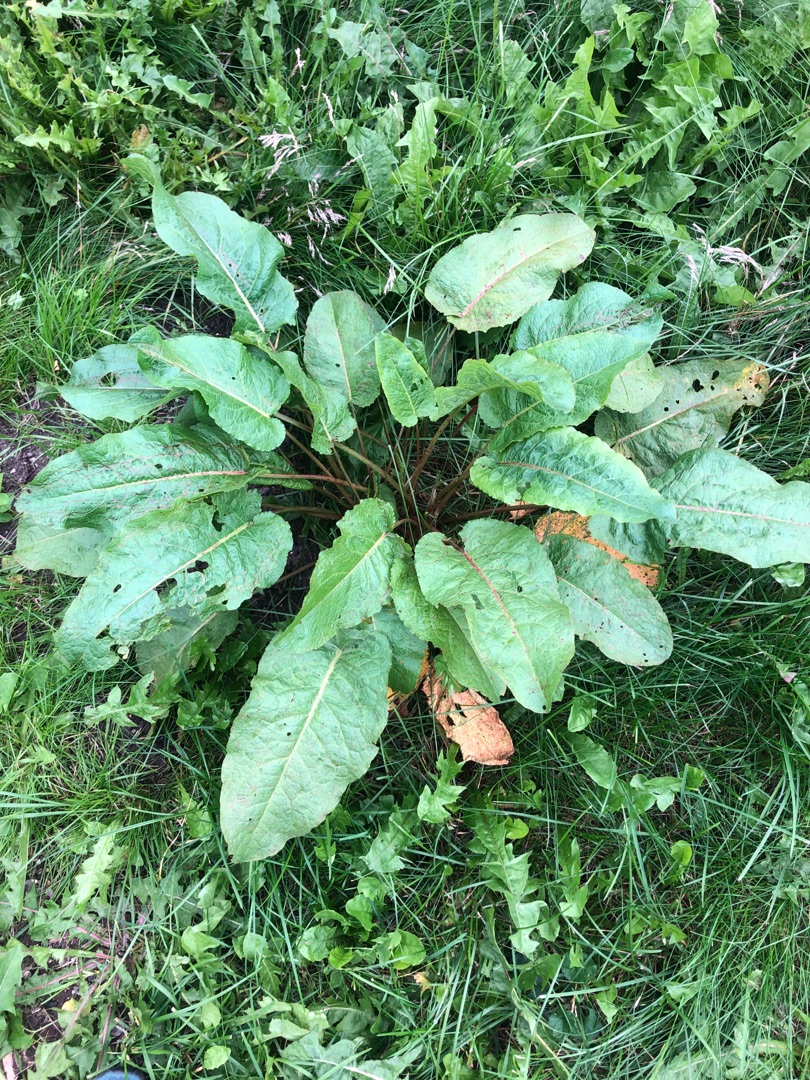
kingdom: Plantae
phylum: Tracheophyta
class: Magnoliopsida
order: Caryophyllales
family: Polygonaceae
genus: Rumex
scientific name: Rumex obtusifolius
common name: Butbladet skræppe
